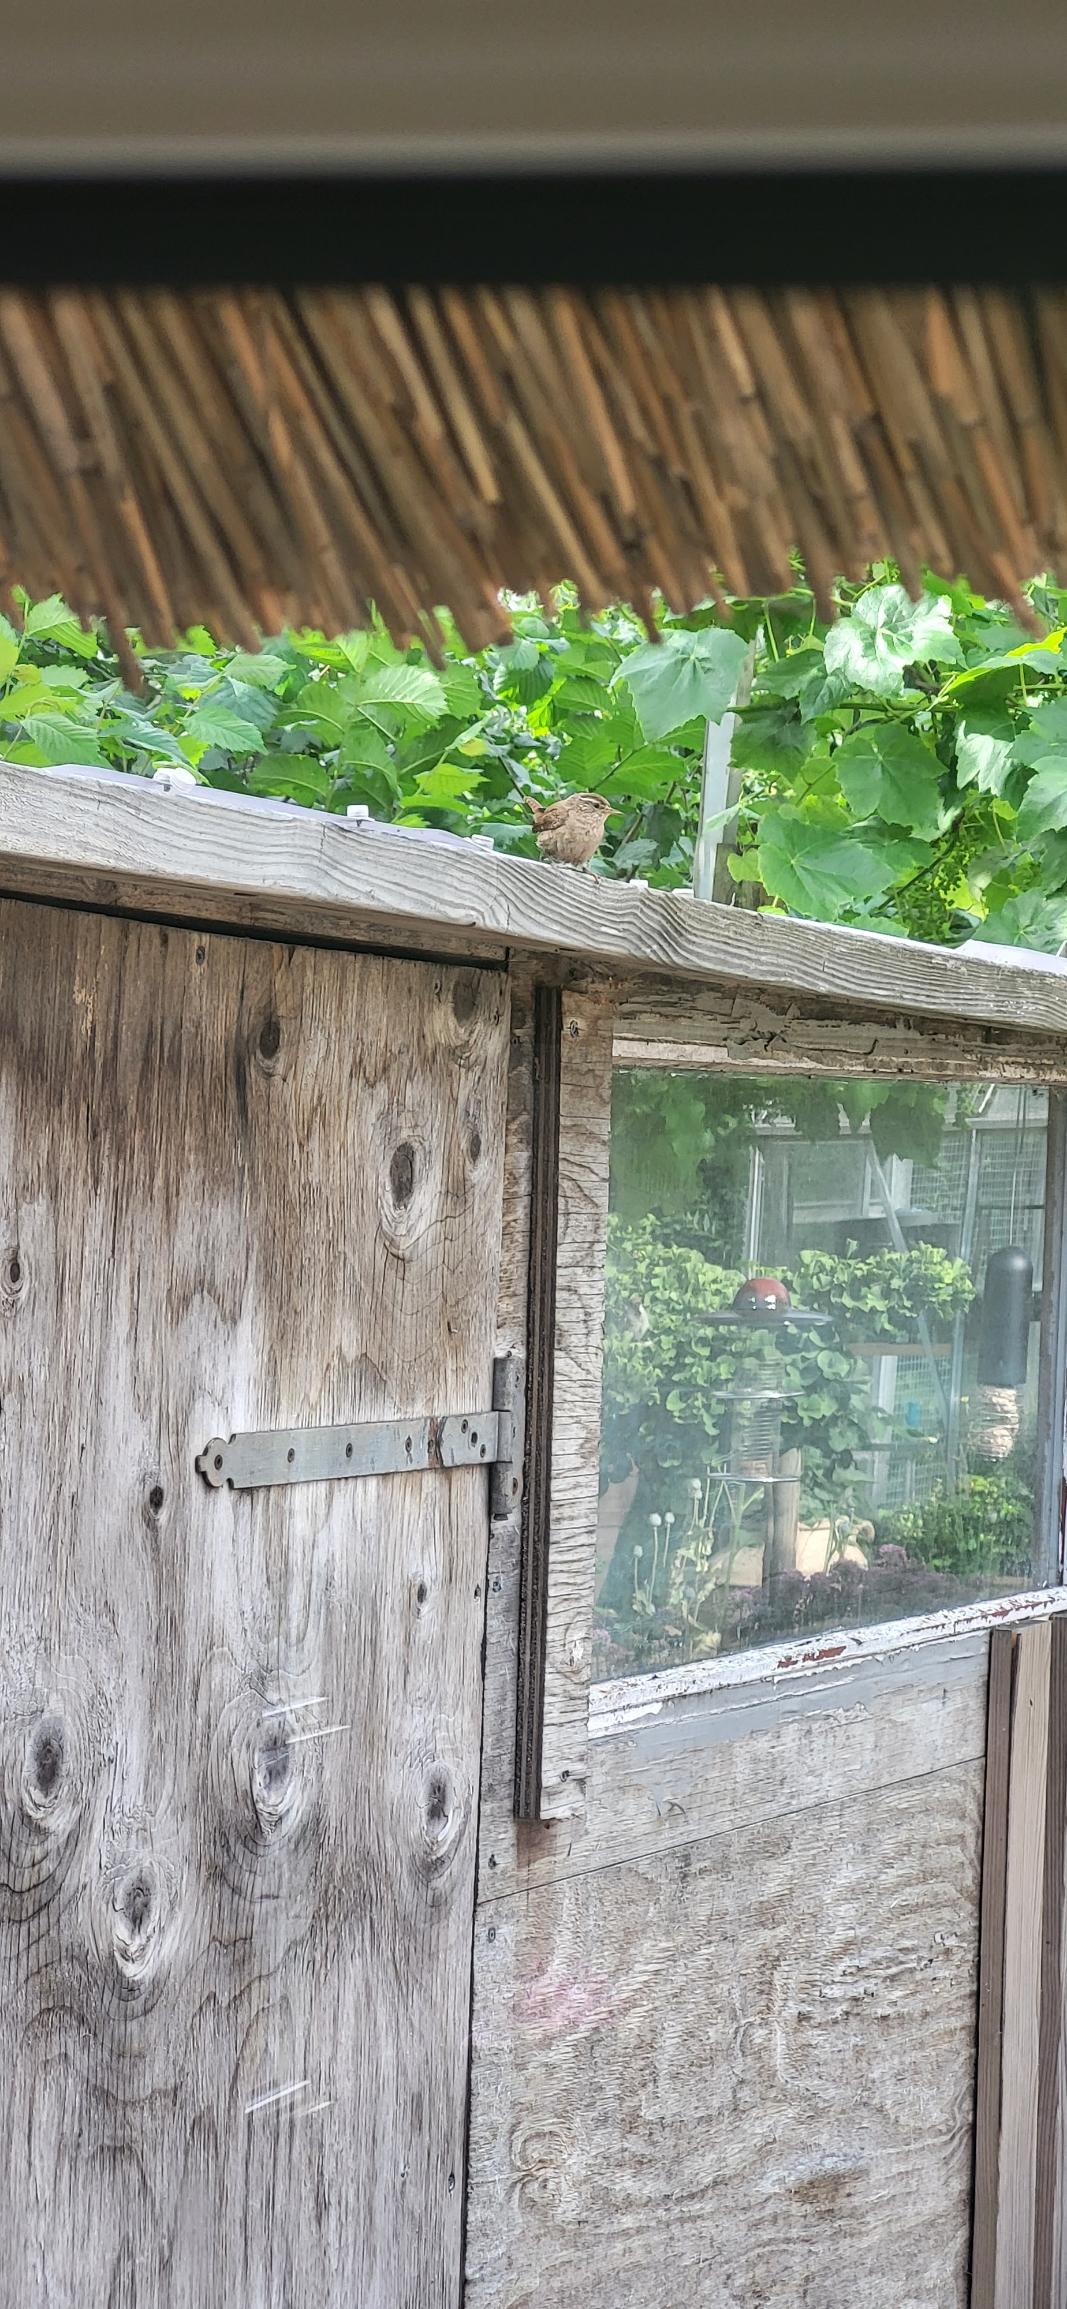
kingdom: Animalia
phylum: Chordata
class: Aves
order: Passeriformes
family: Troglodytidae
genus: Troglodytes
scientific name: Troglodytes troglodytes
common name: Gærdesmutte
